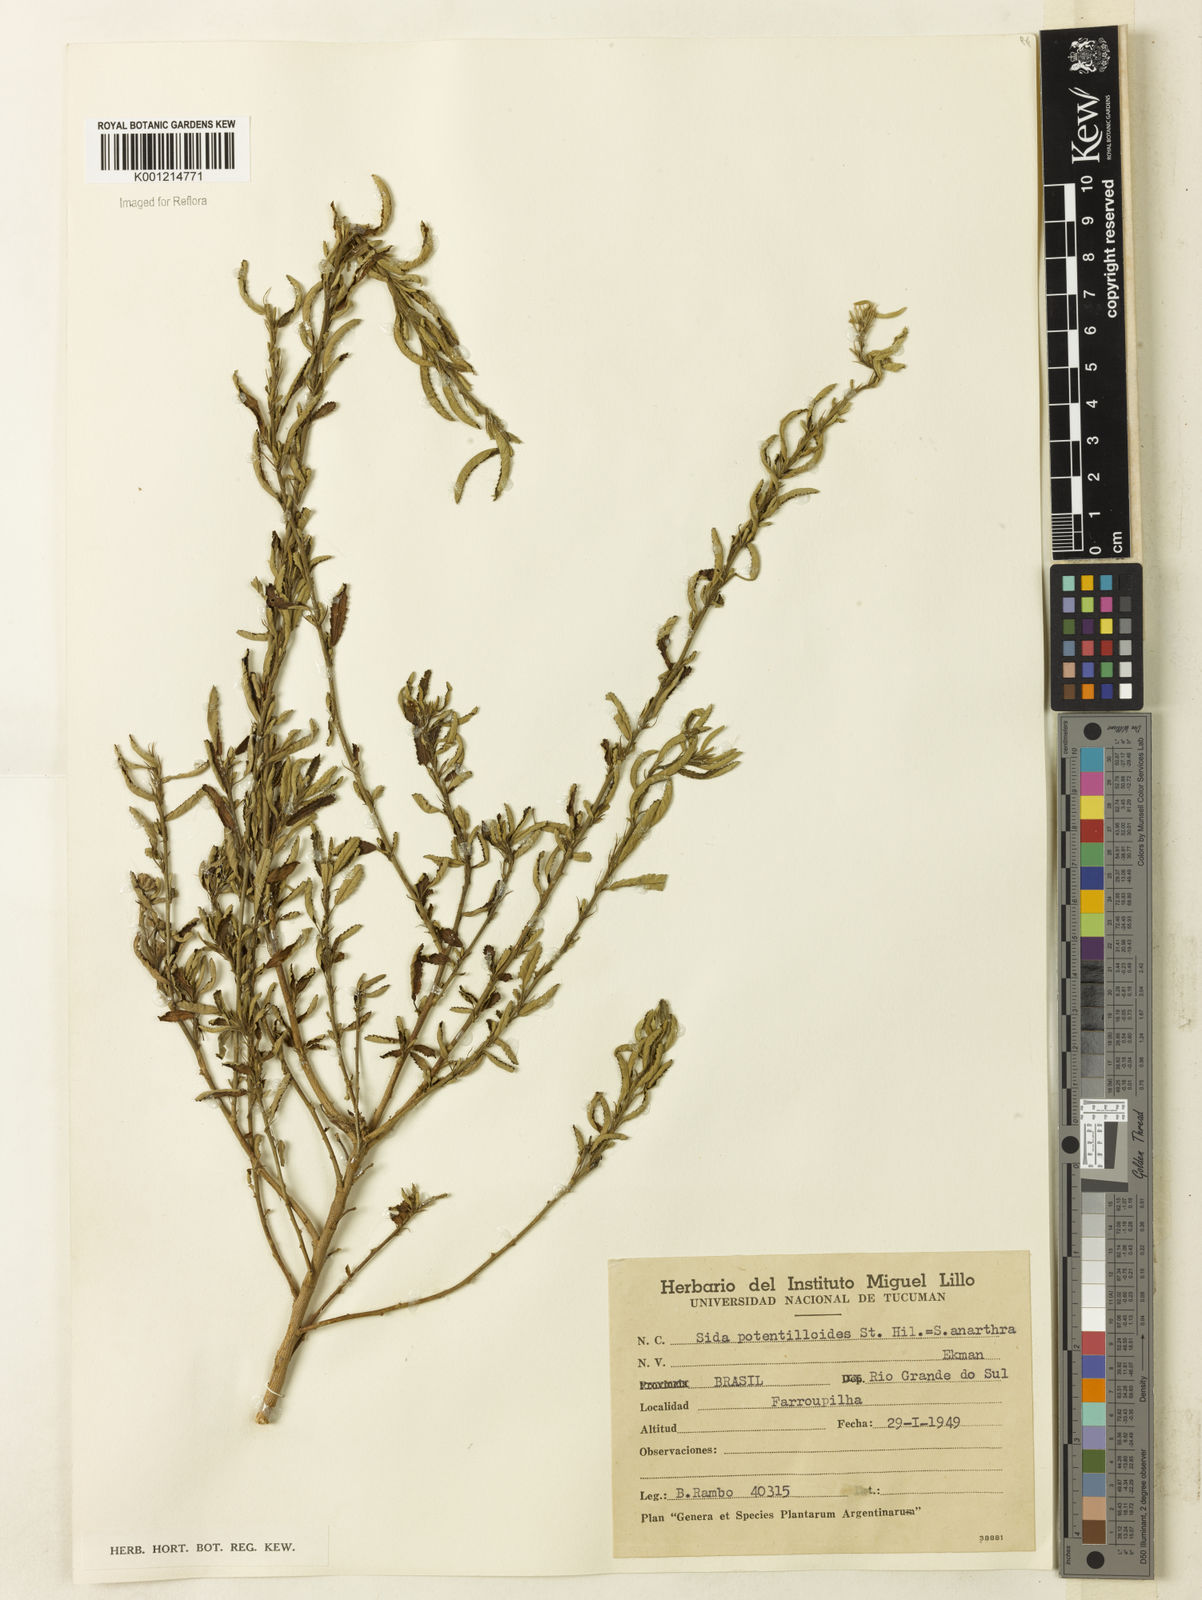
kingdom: Plantae
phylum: Tracheophyta
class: Magnoliopsida
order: Malvales
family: Malvaceae
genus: Sida
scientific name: Sida potentilloides
